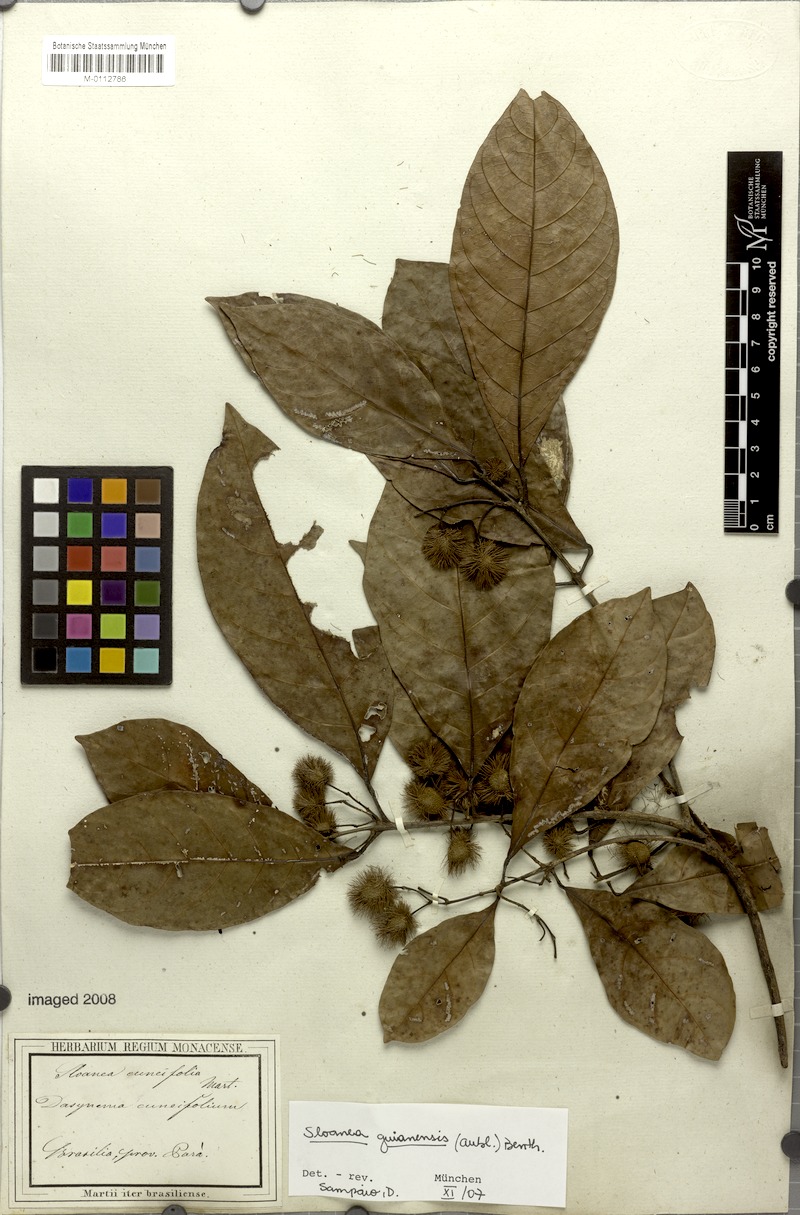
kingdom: Plantae
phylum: Tracheophyta
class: Magnoliopsida
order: Oxalidales
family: Elaeocarpaceae
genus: Sloanea
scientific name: Sloanea guianensis
